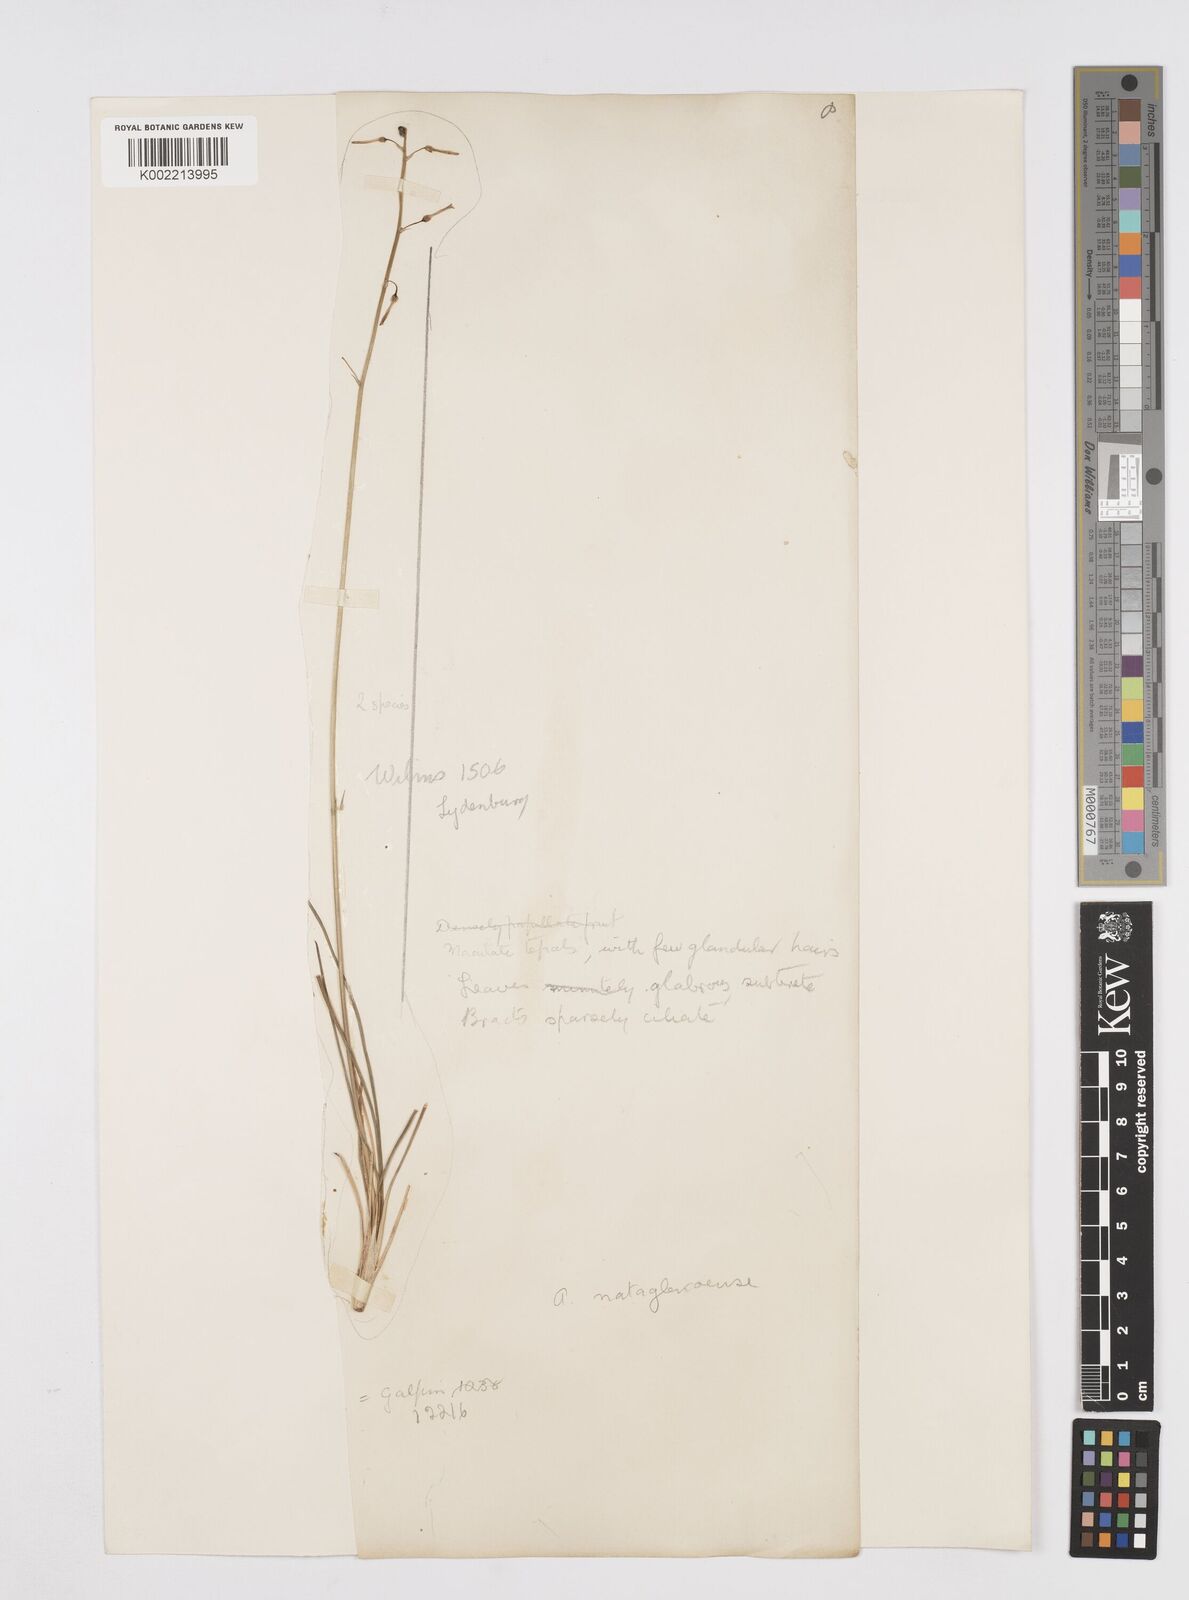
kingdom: Plantae
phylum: Tracheophyta
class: Liliopsida
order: Asparagales
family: Asphodelaceae
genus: Trachyandra
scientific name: Trachyandra asperata
